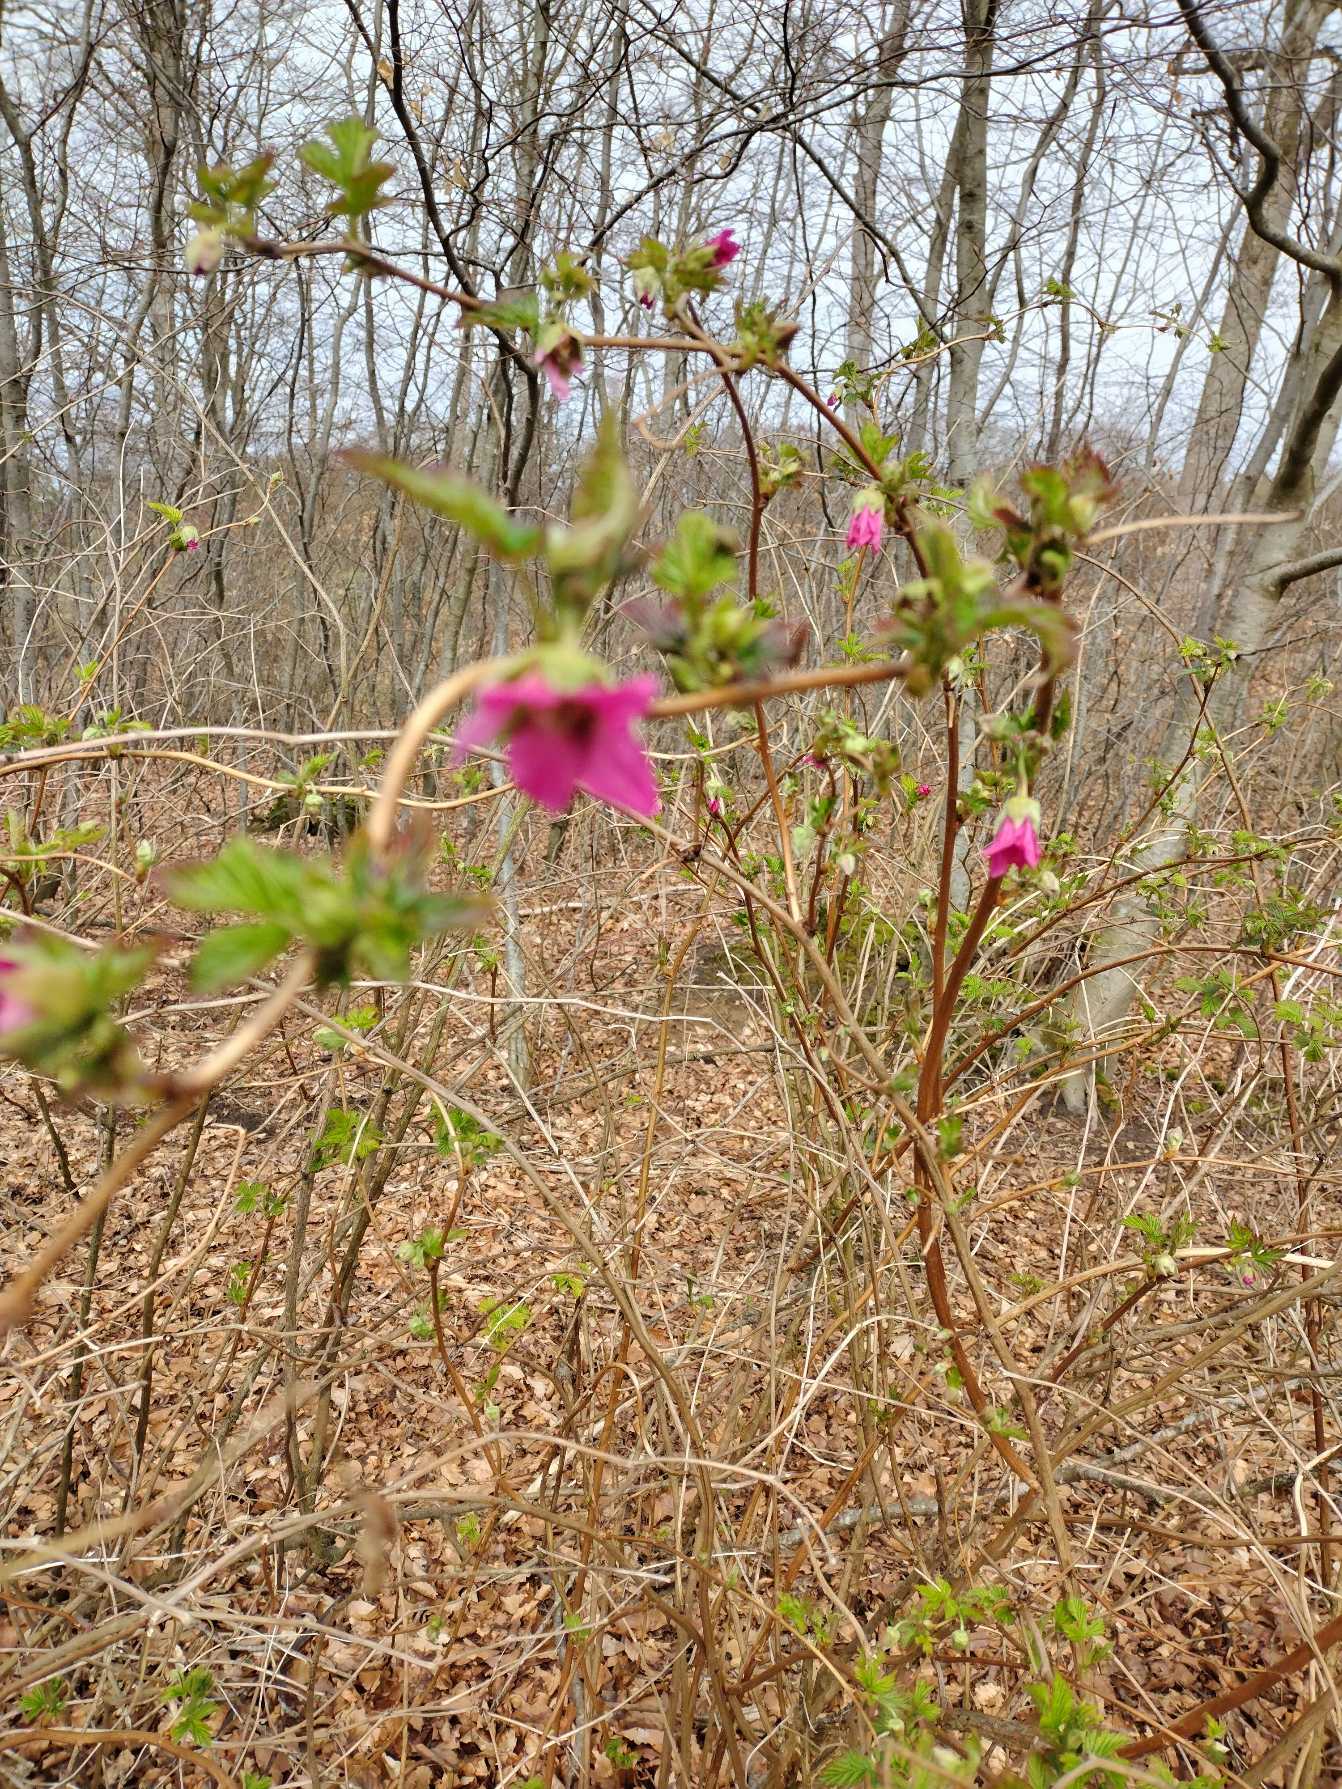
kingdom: Plantae
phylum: Tracheophyta
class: Magnoliopsida
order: Rosales
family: Rosaceae
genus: Rubus
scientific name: Rubus spectabilis
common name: Laksebær
